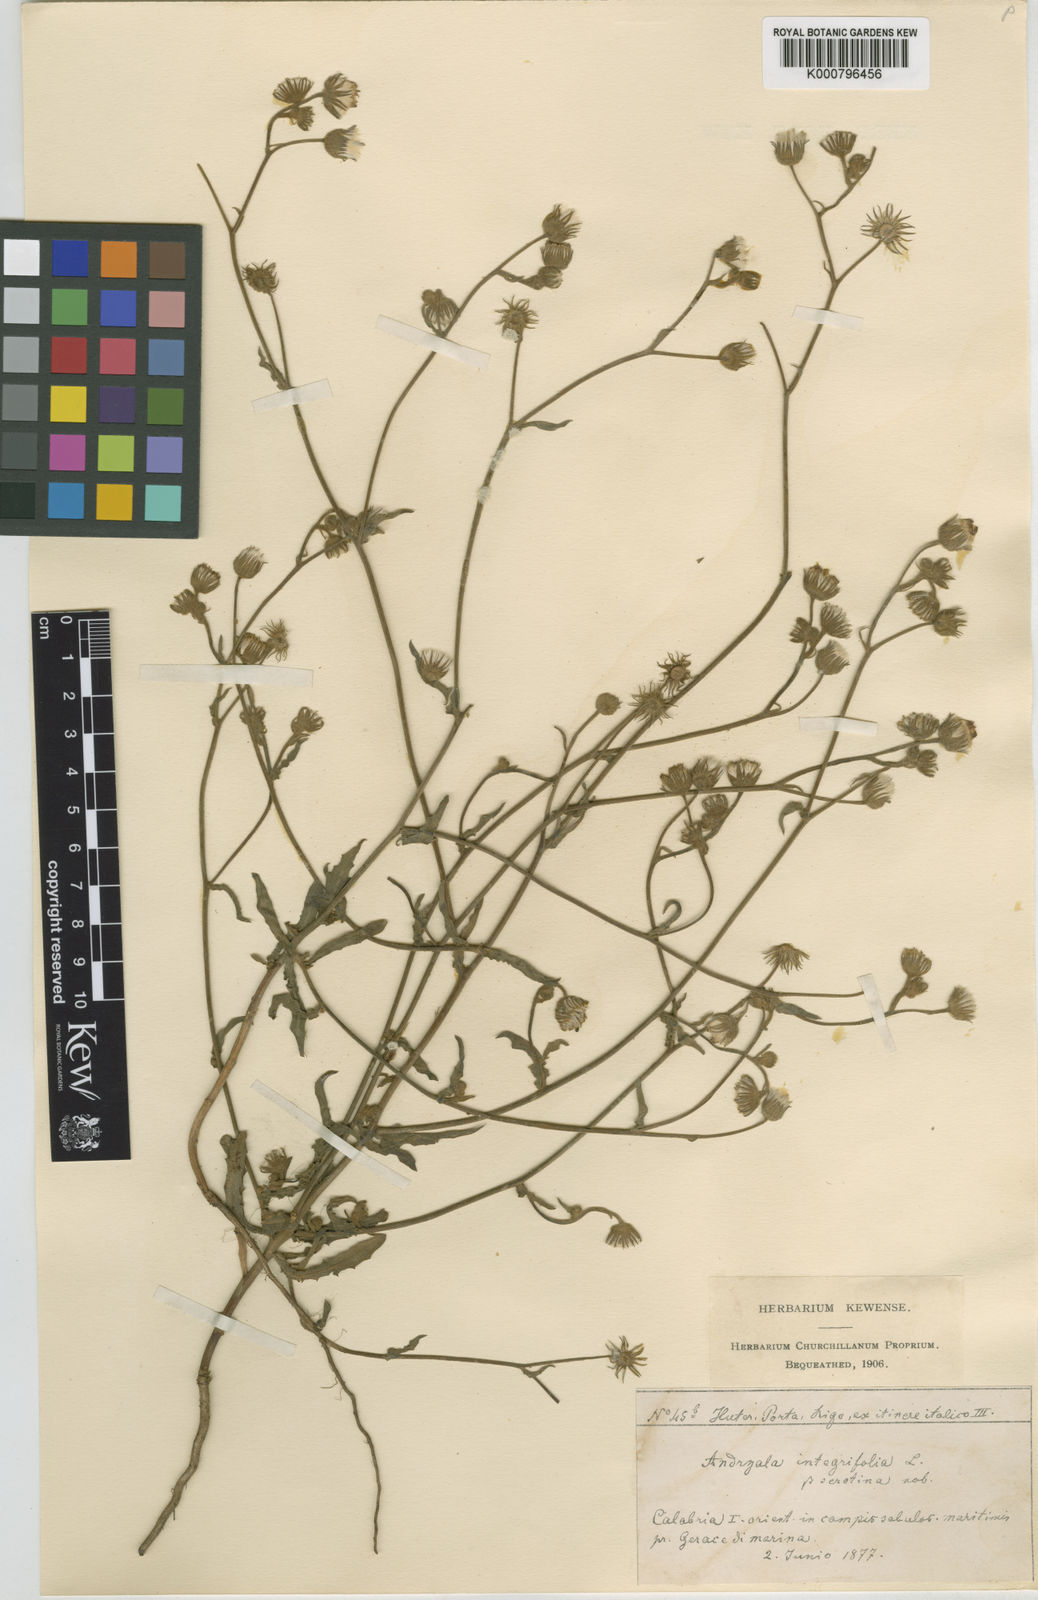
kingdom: Plantae
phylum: Tracheophyta
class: Magnoliopsida
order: Asterales
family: Asteraceae
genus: Andryala
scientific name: Andryala integrifolia
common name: Common andryala
